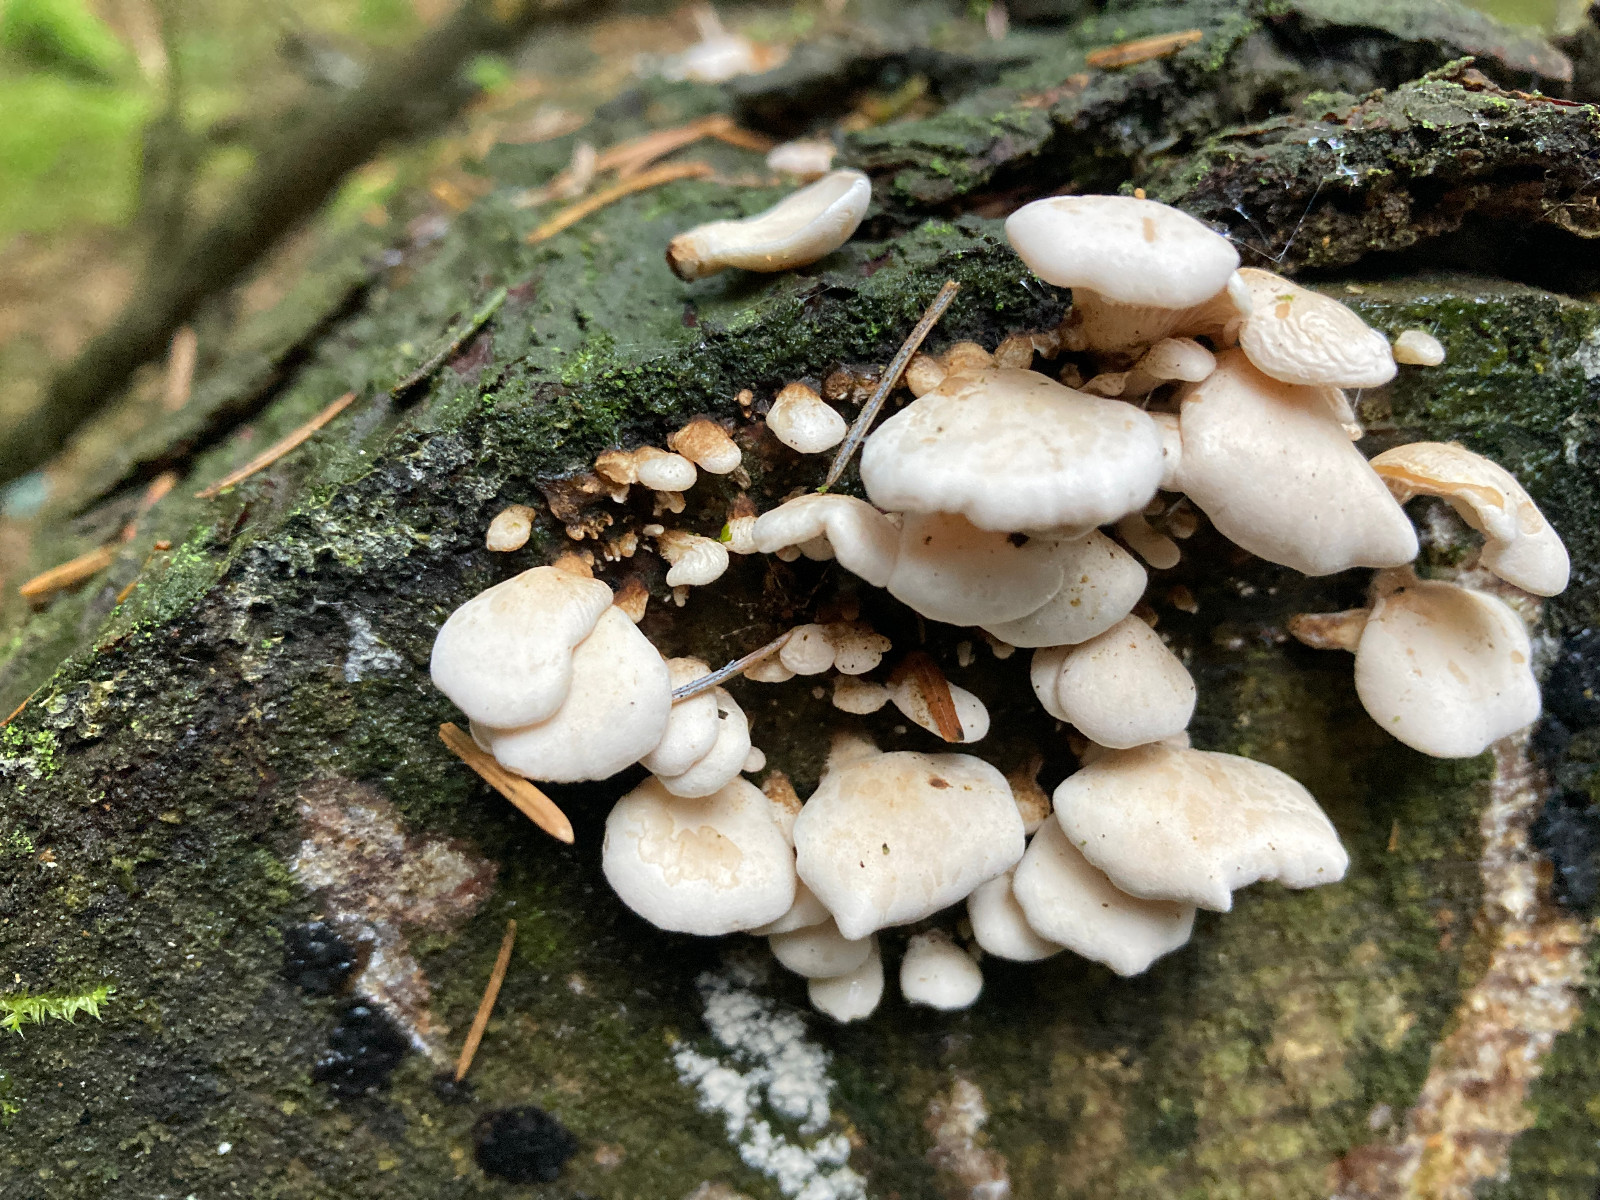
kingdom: Fungi
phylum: Basidiomycota
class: Agaricomycetes
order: Agaricales
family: Mycenaceae
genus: Panellus
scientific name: Panellus mitis
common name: mild epaulethat
